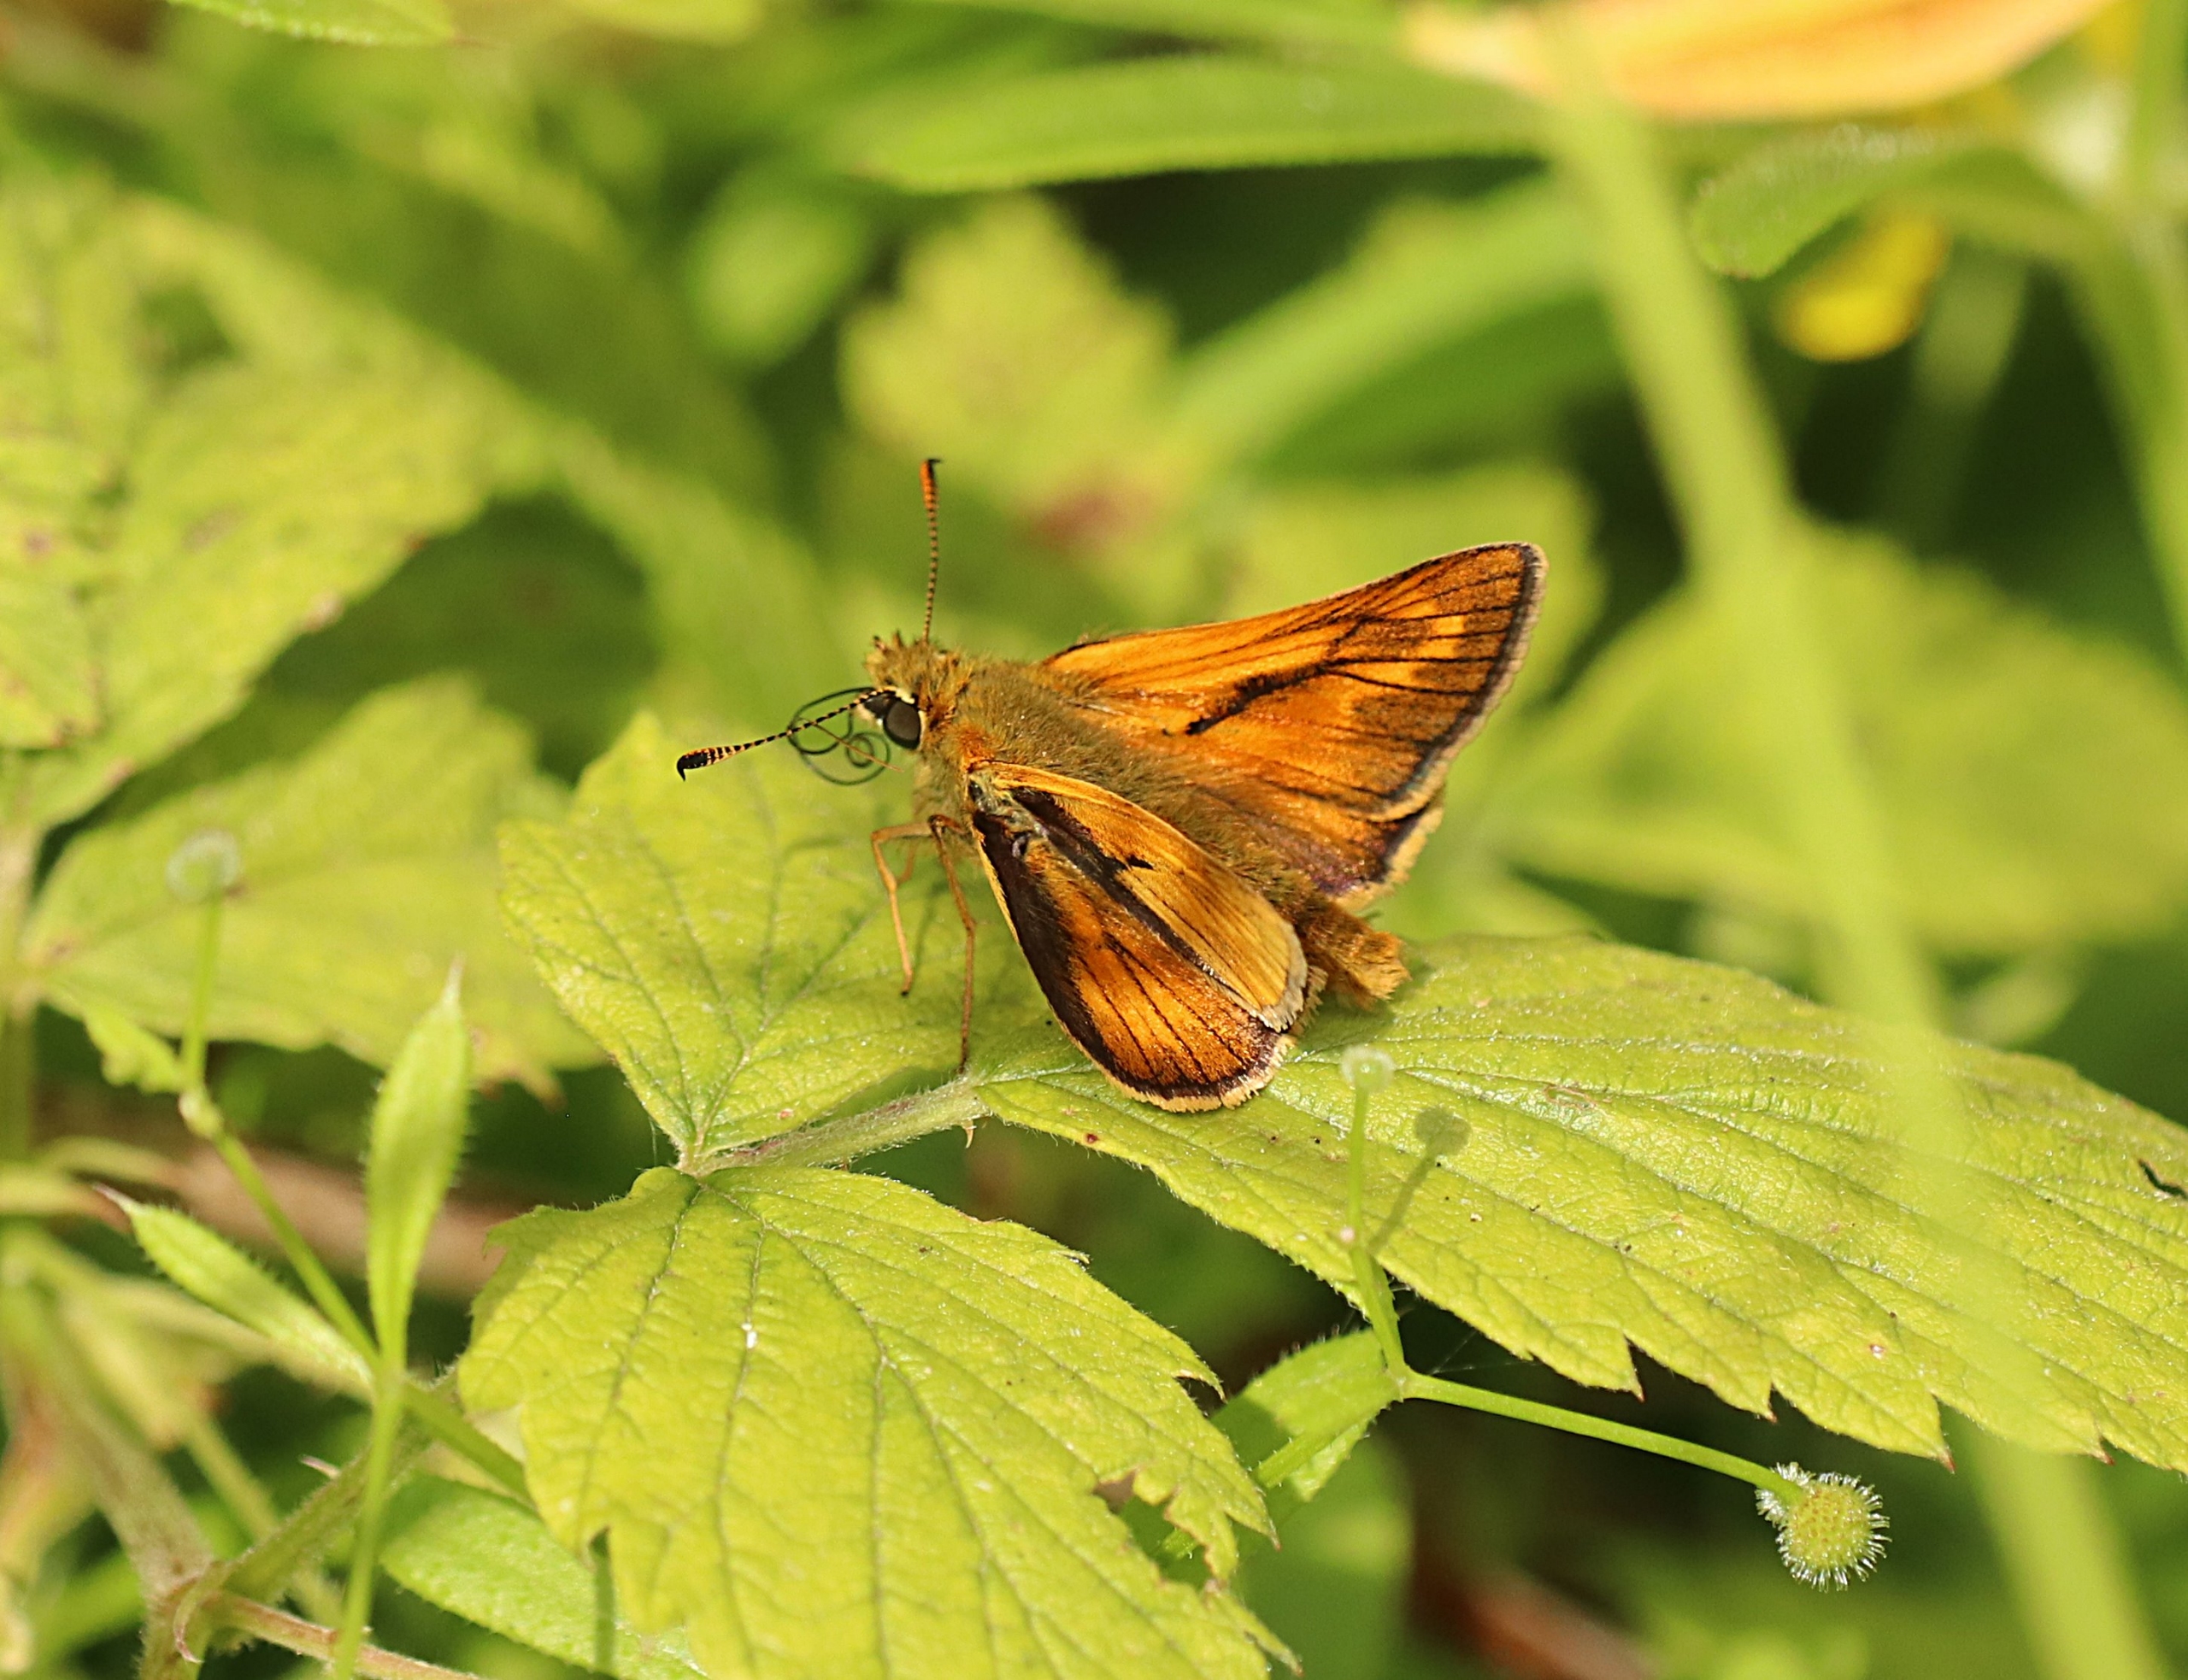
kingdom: Animalia
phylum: Arthropoda
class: Insecta
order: Lepidoptera
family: Hesperiidae
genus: Ochlodes
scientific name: Ochlodes venata
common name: Stor bredpande
